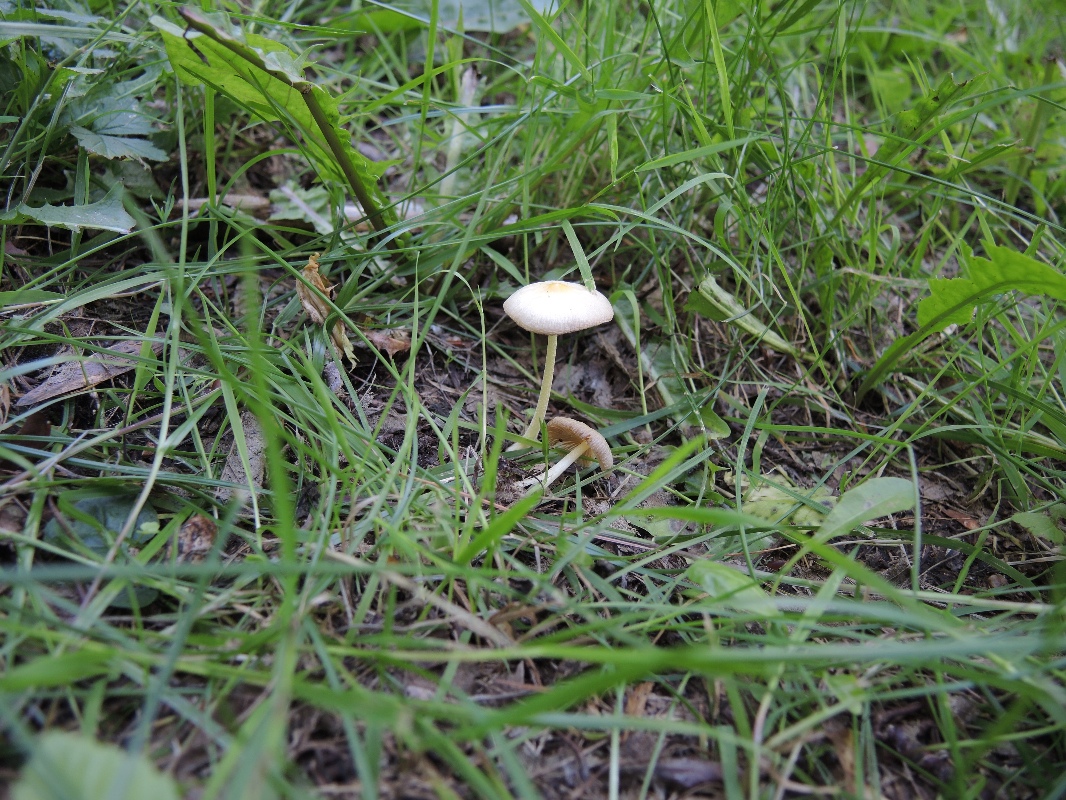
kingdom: Fungi
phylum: Basidiomycota
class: Agaricomycetes
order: Agaricales
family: Bolbitiaceae
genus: Bolbitius
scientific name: Bolbitius titubans
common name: almindelig gulhat
